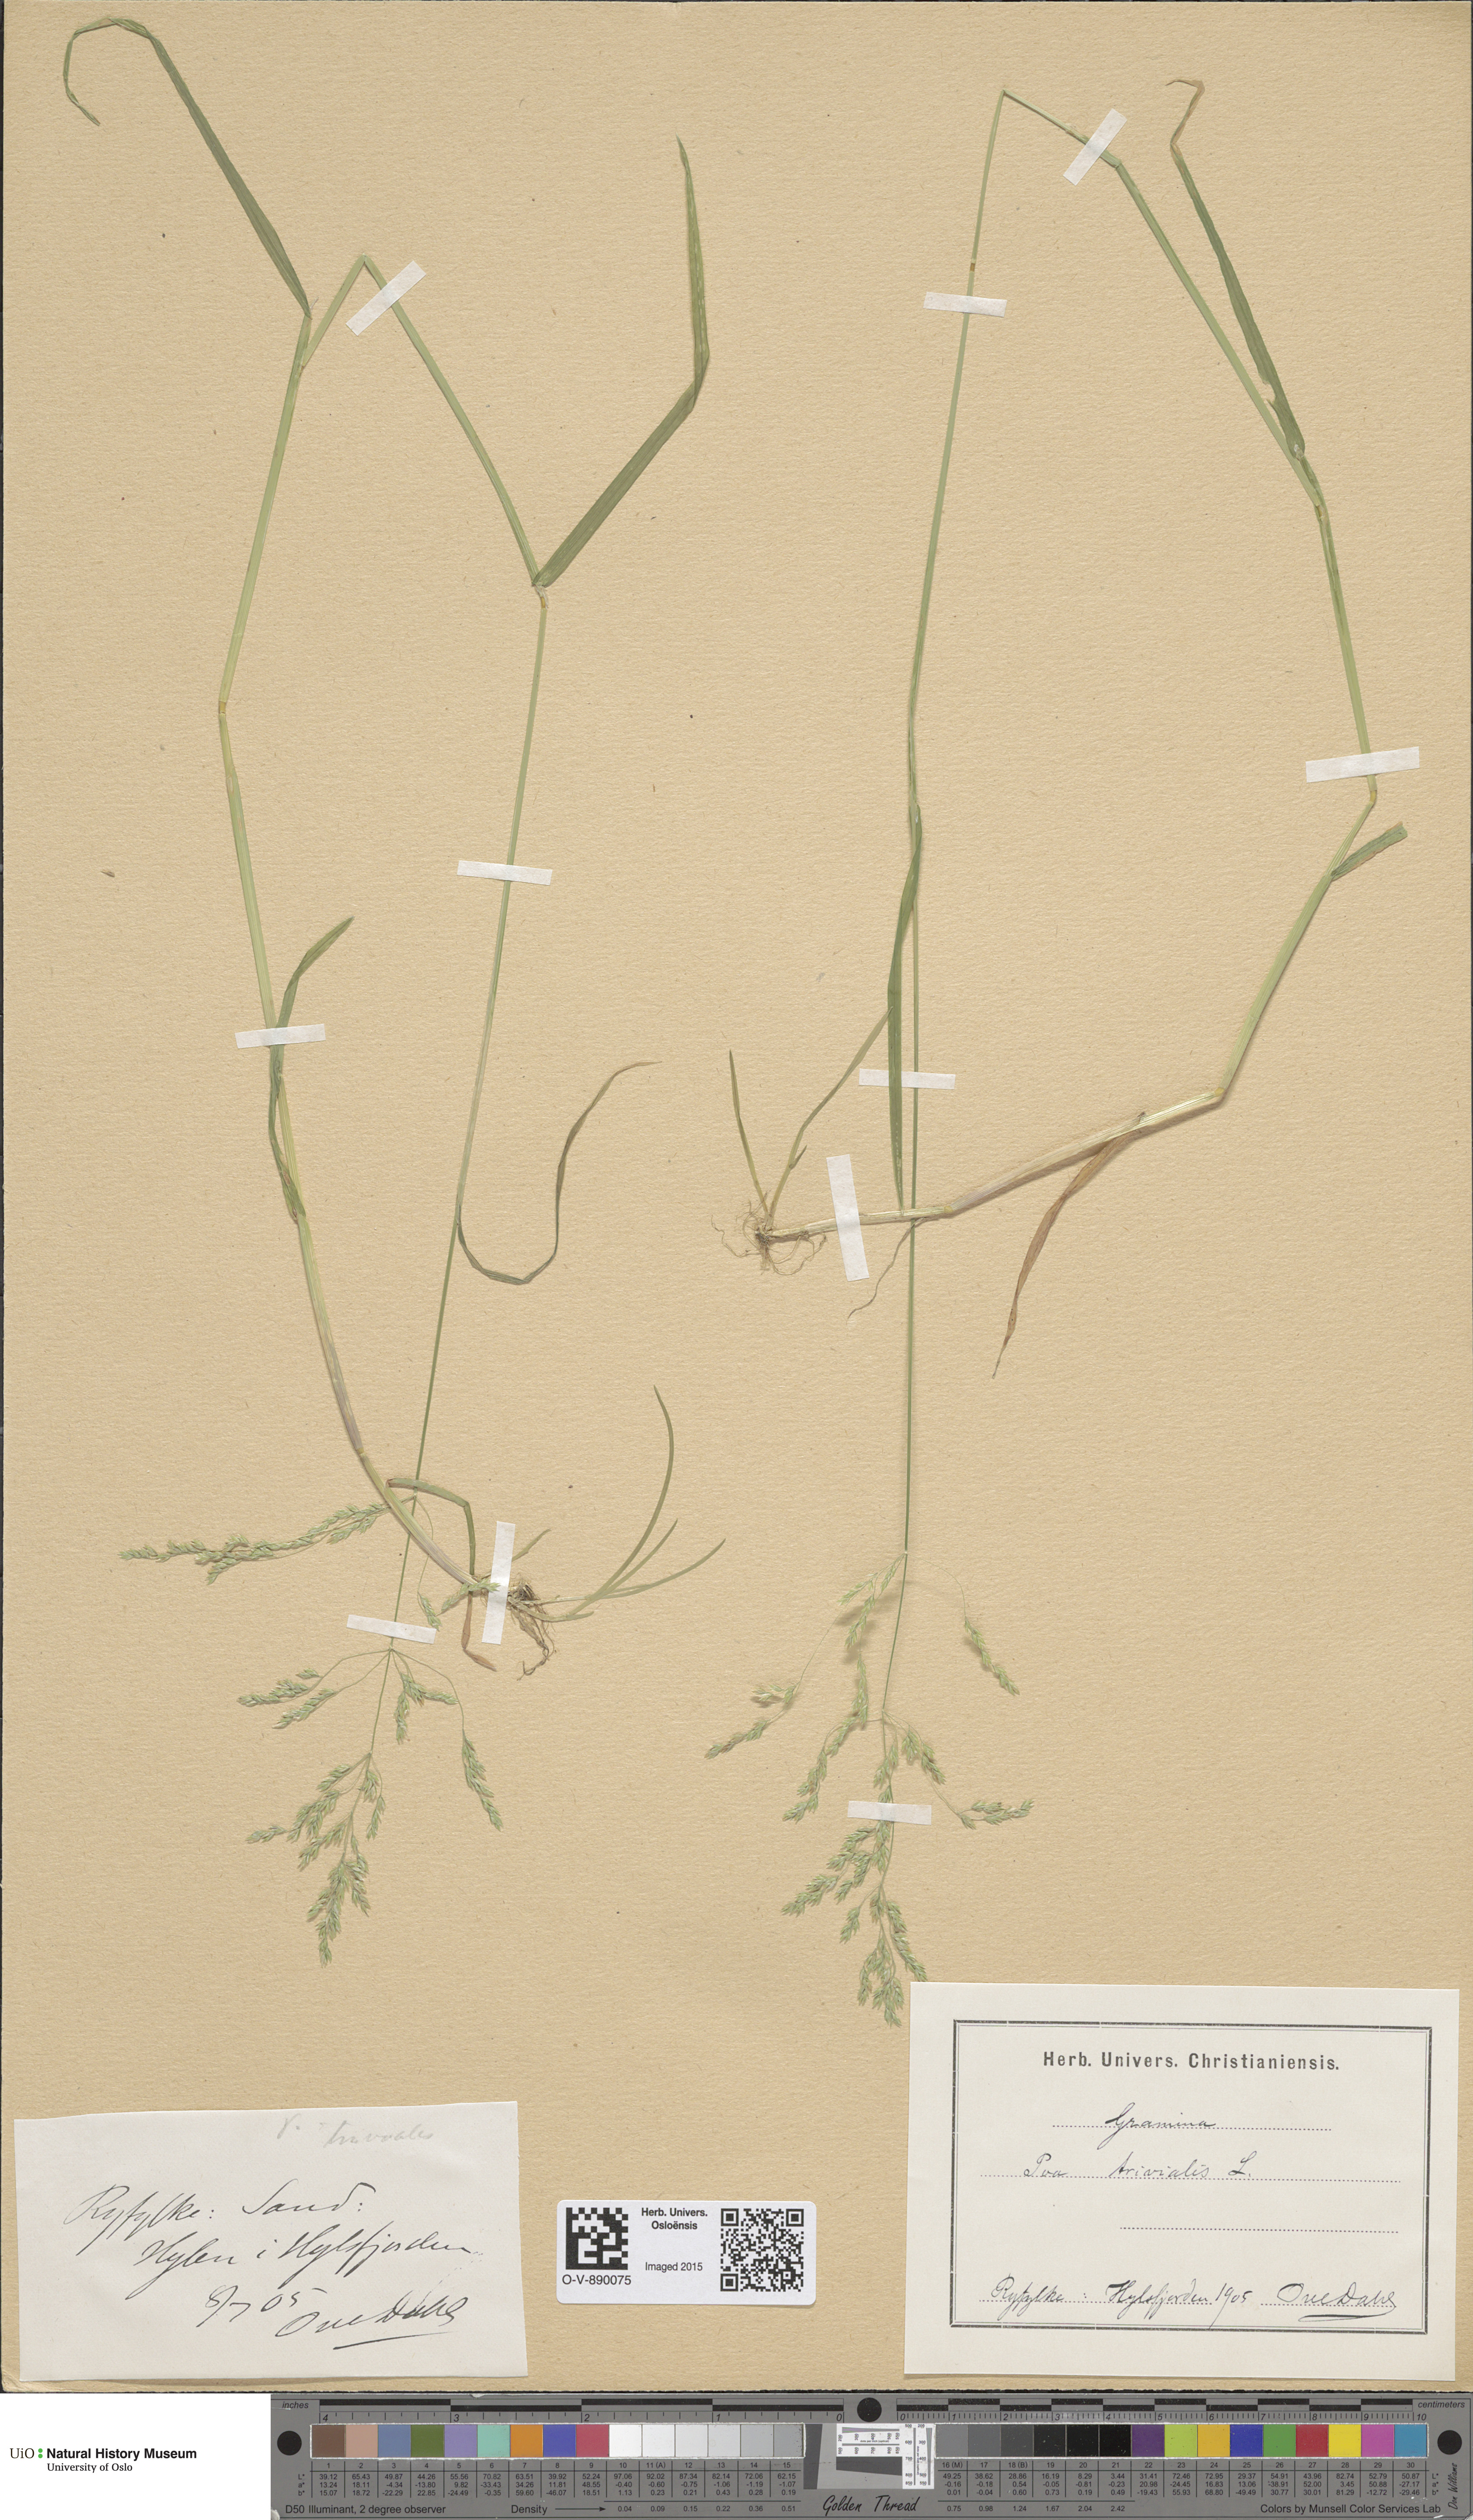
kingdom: Plantae
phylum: Tracheophyta
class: Liliopsida
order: Poales
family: Poaceae
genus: Poa
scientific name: Poa trivialis
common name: Rough bluegrass
